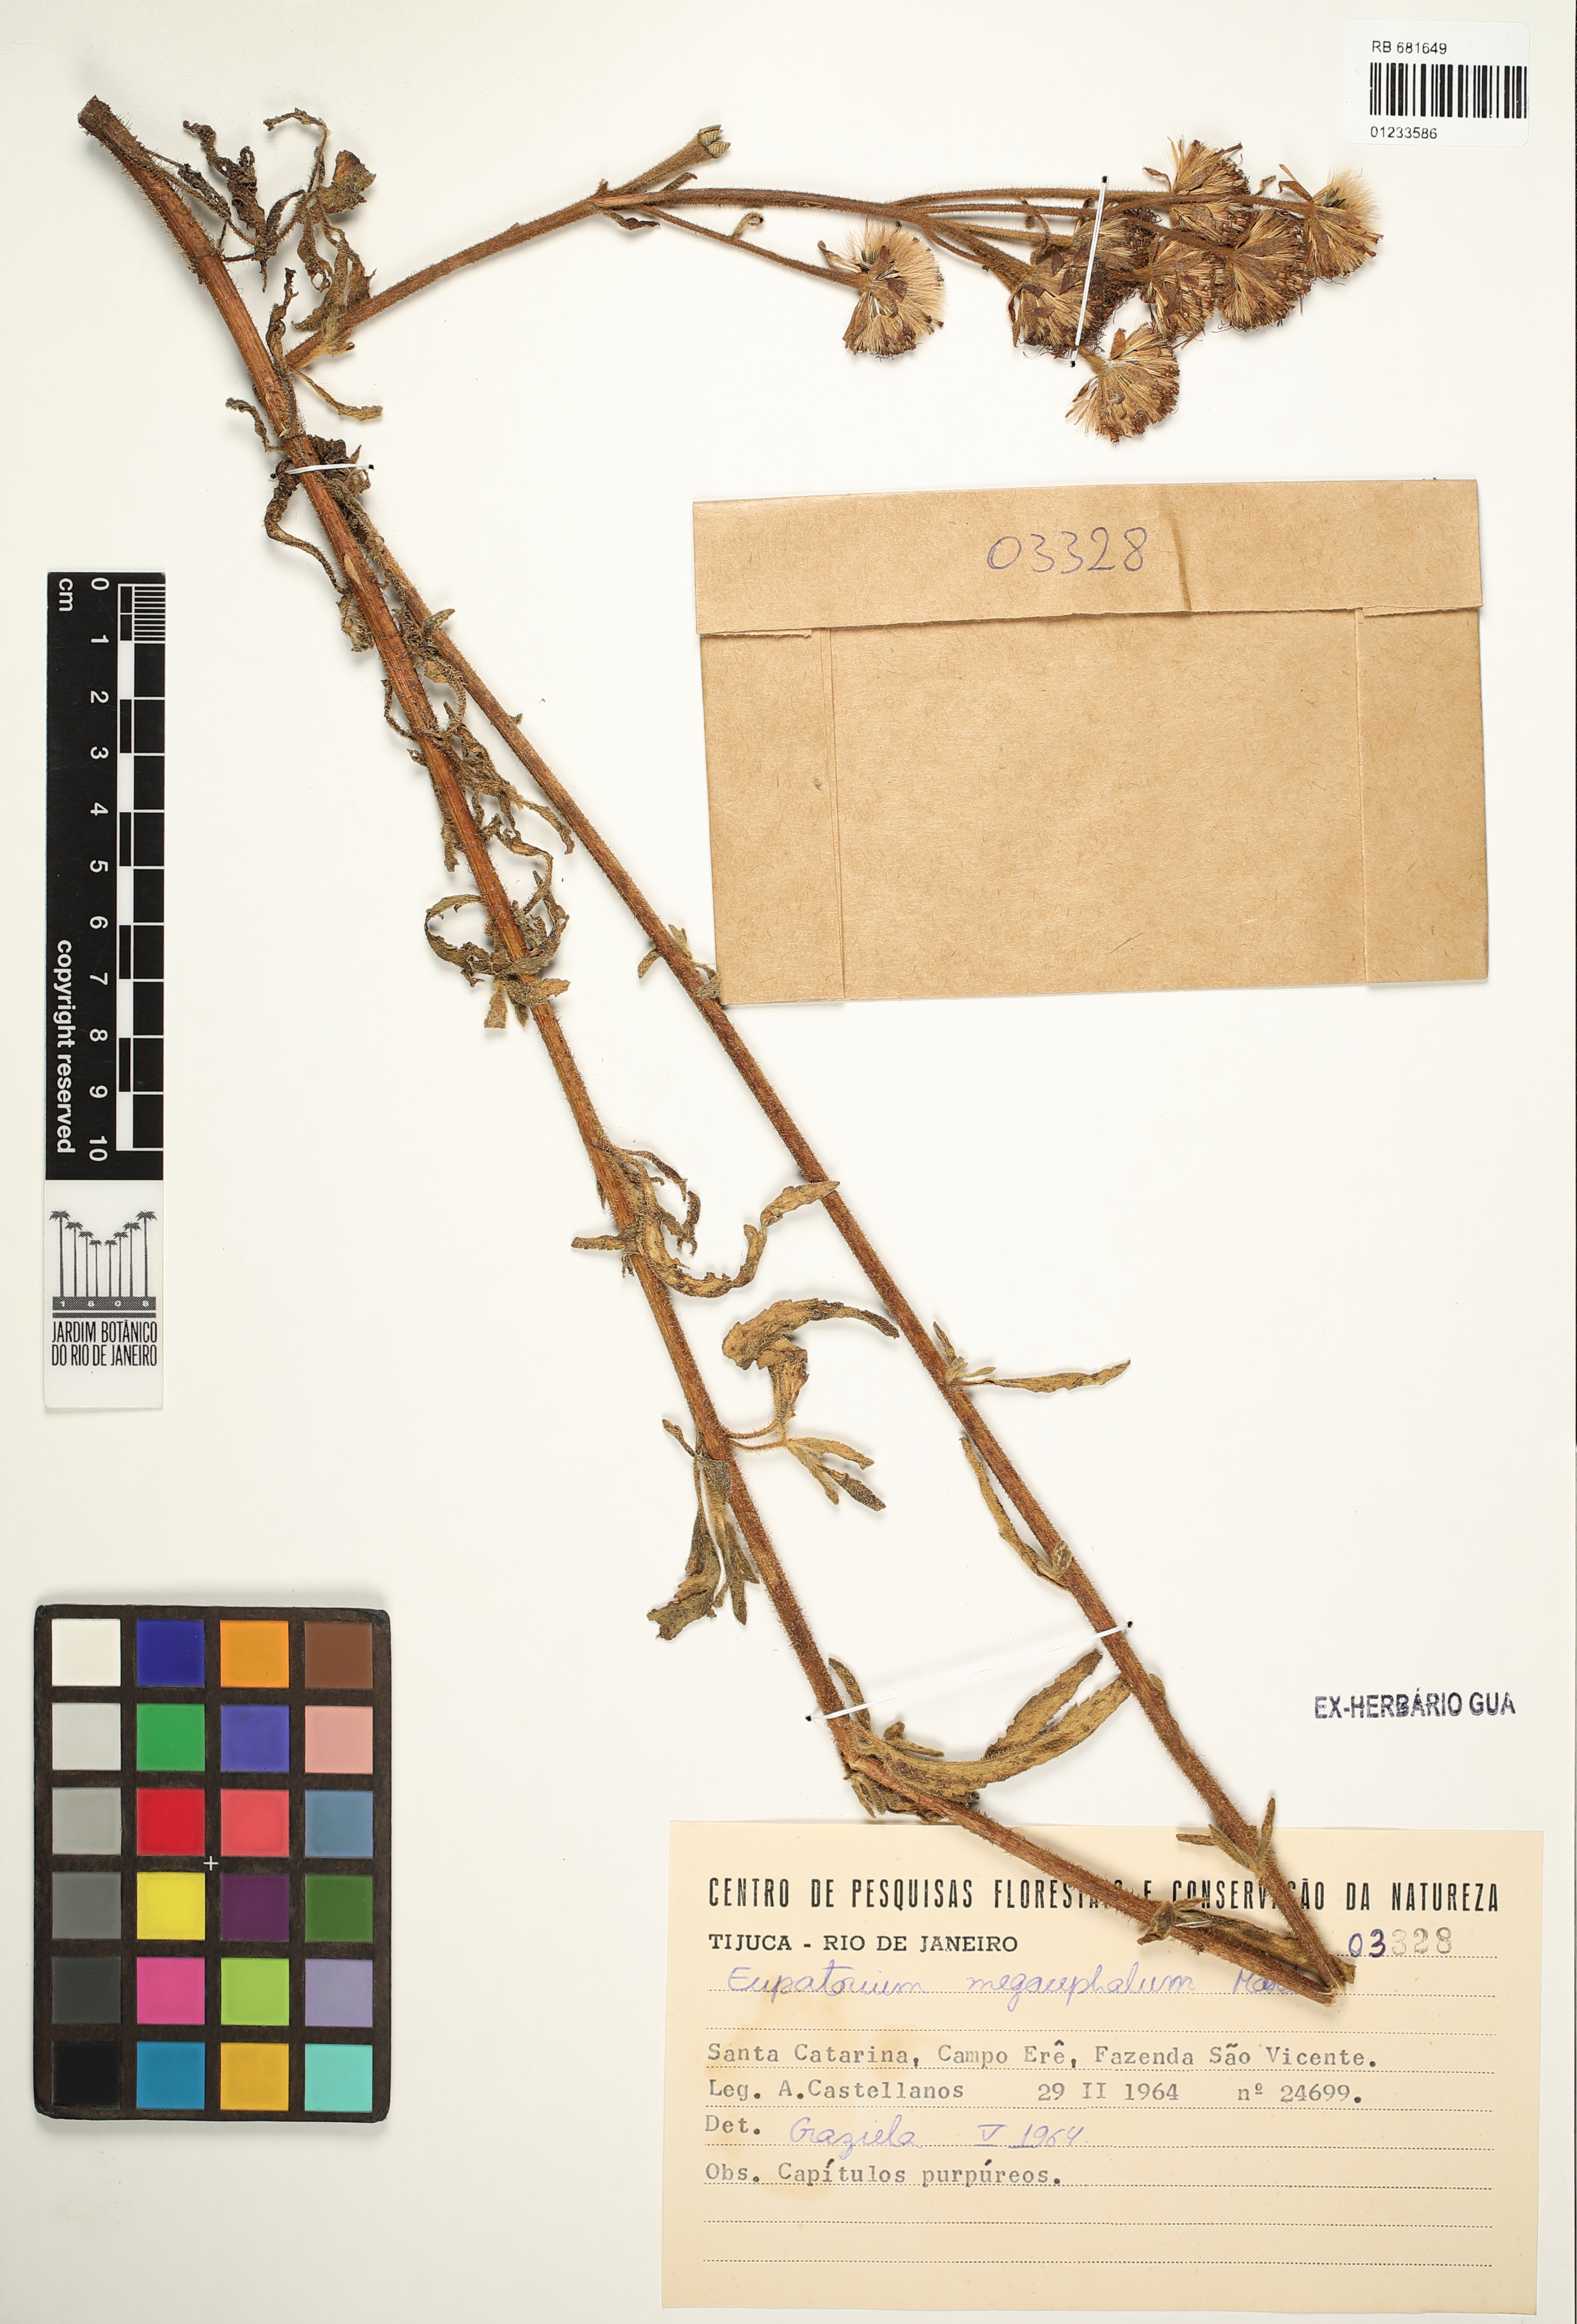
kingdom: Plantae
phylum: Tracheophyta
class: Magnoliopsida
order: Asterales
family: Asteraceae
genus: Campuloclinium
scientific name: Campuloclinium megacephalum
